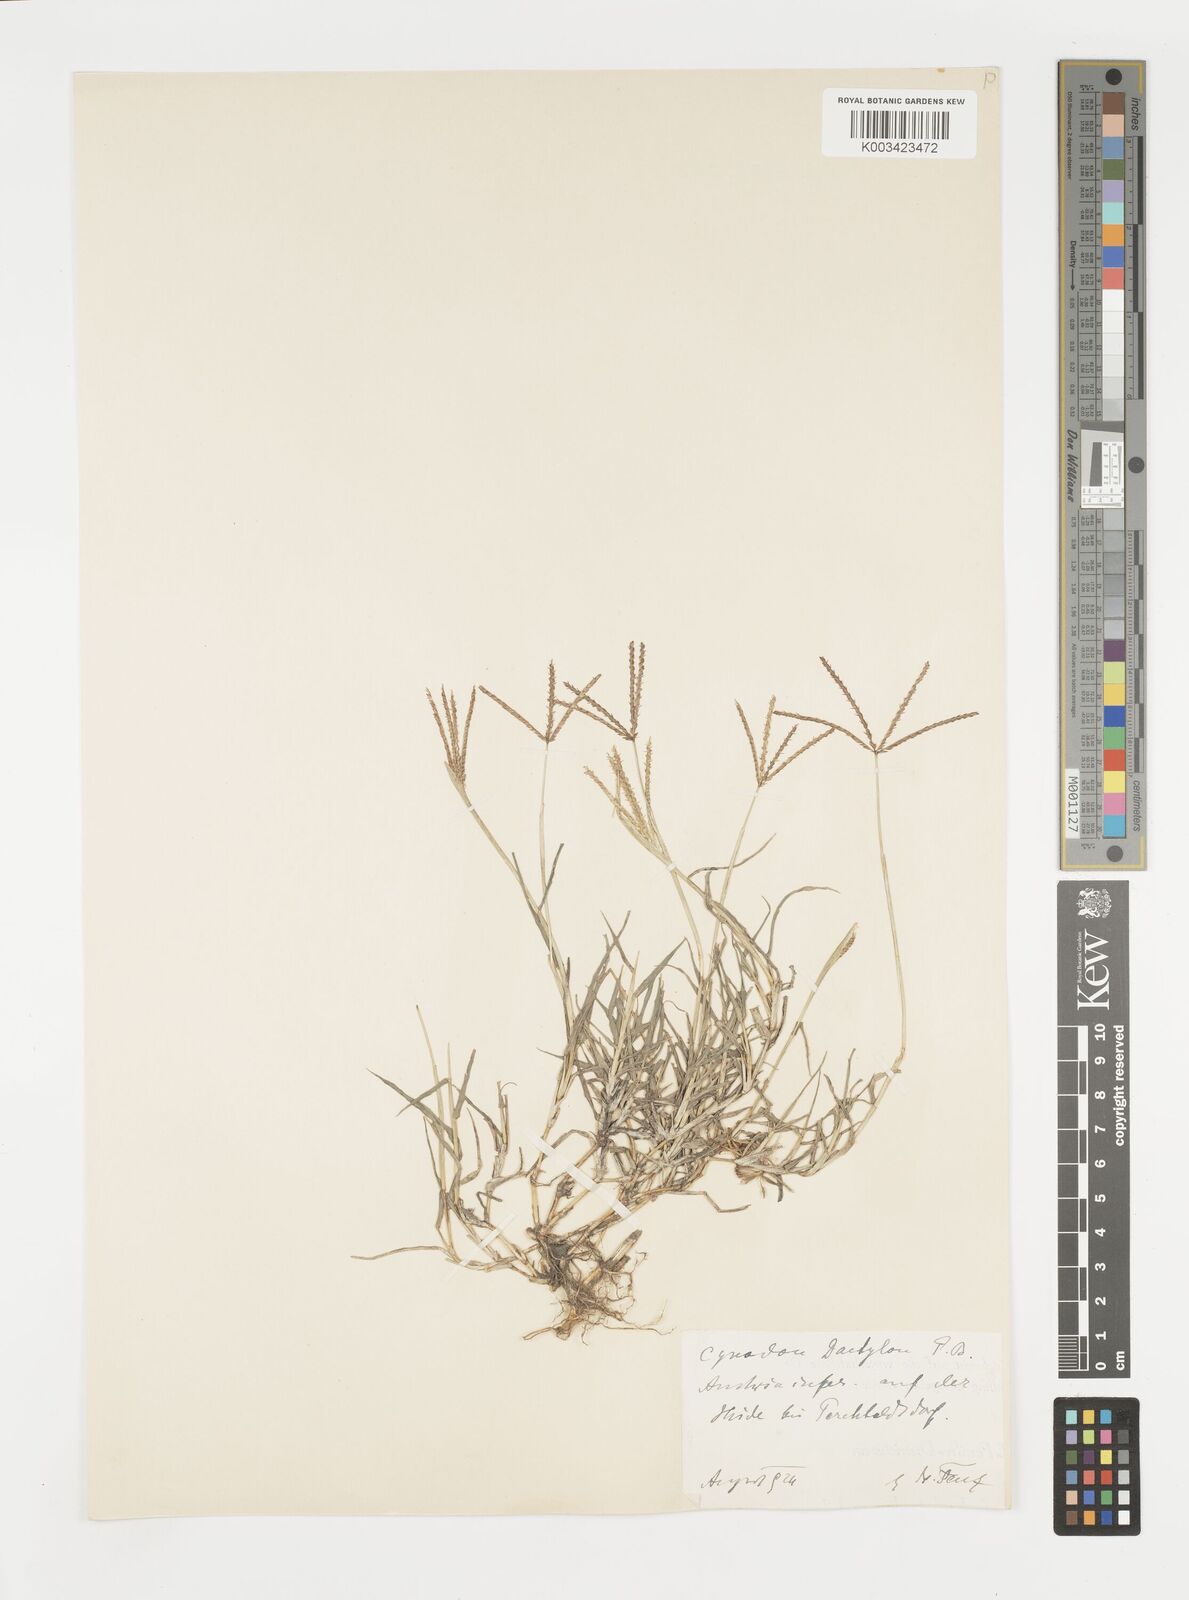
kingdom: Plantae
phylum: Tracheophyta
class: Liliopsida
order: Poales
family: Poaceae
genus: Cynodon
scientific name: Cynodon dactylon
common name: Bermuda grass
